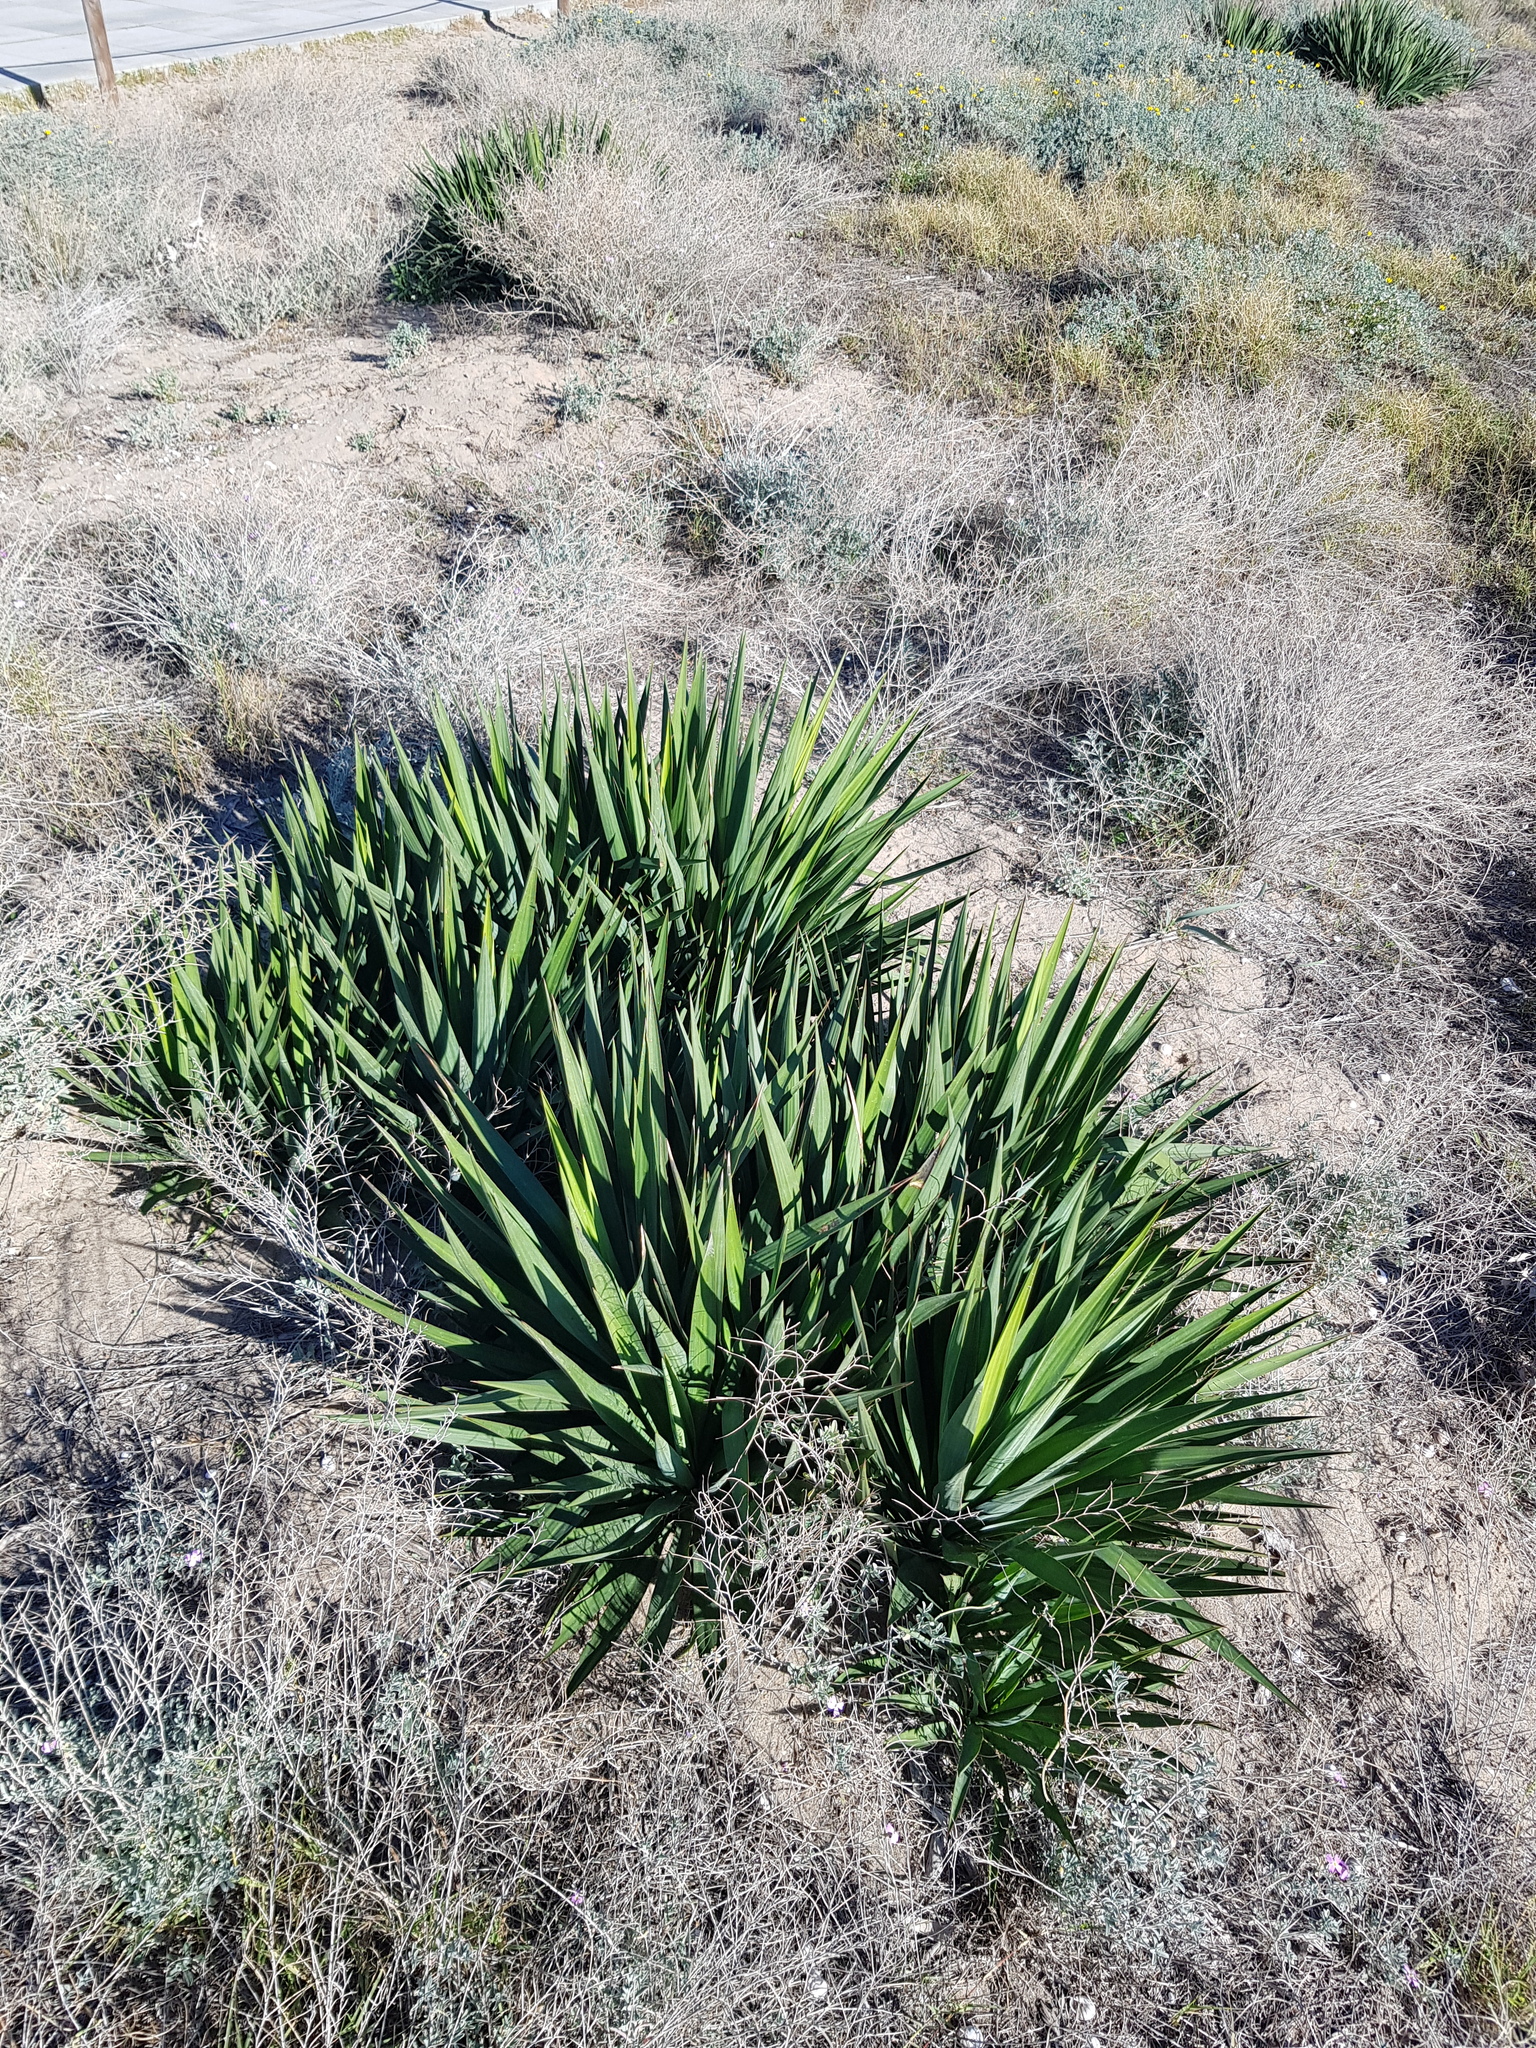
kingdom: Plantae
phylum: Tracheophyta
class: Liliopsida
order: Asparagales
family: Asparagaceae
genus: Yucca
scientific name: Yucca aloifolia
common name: Aloe yucca
